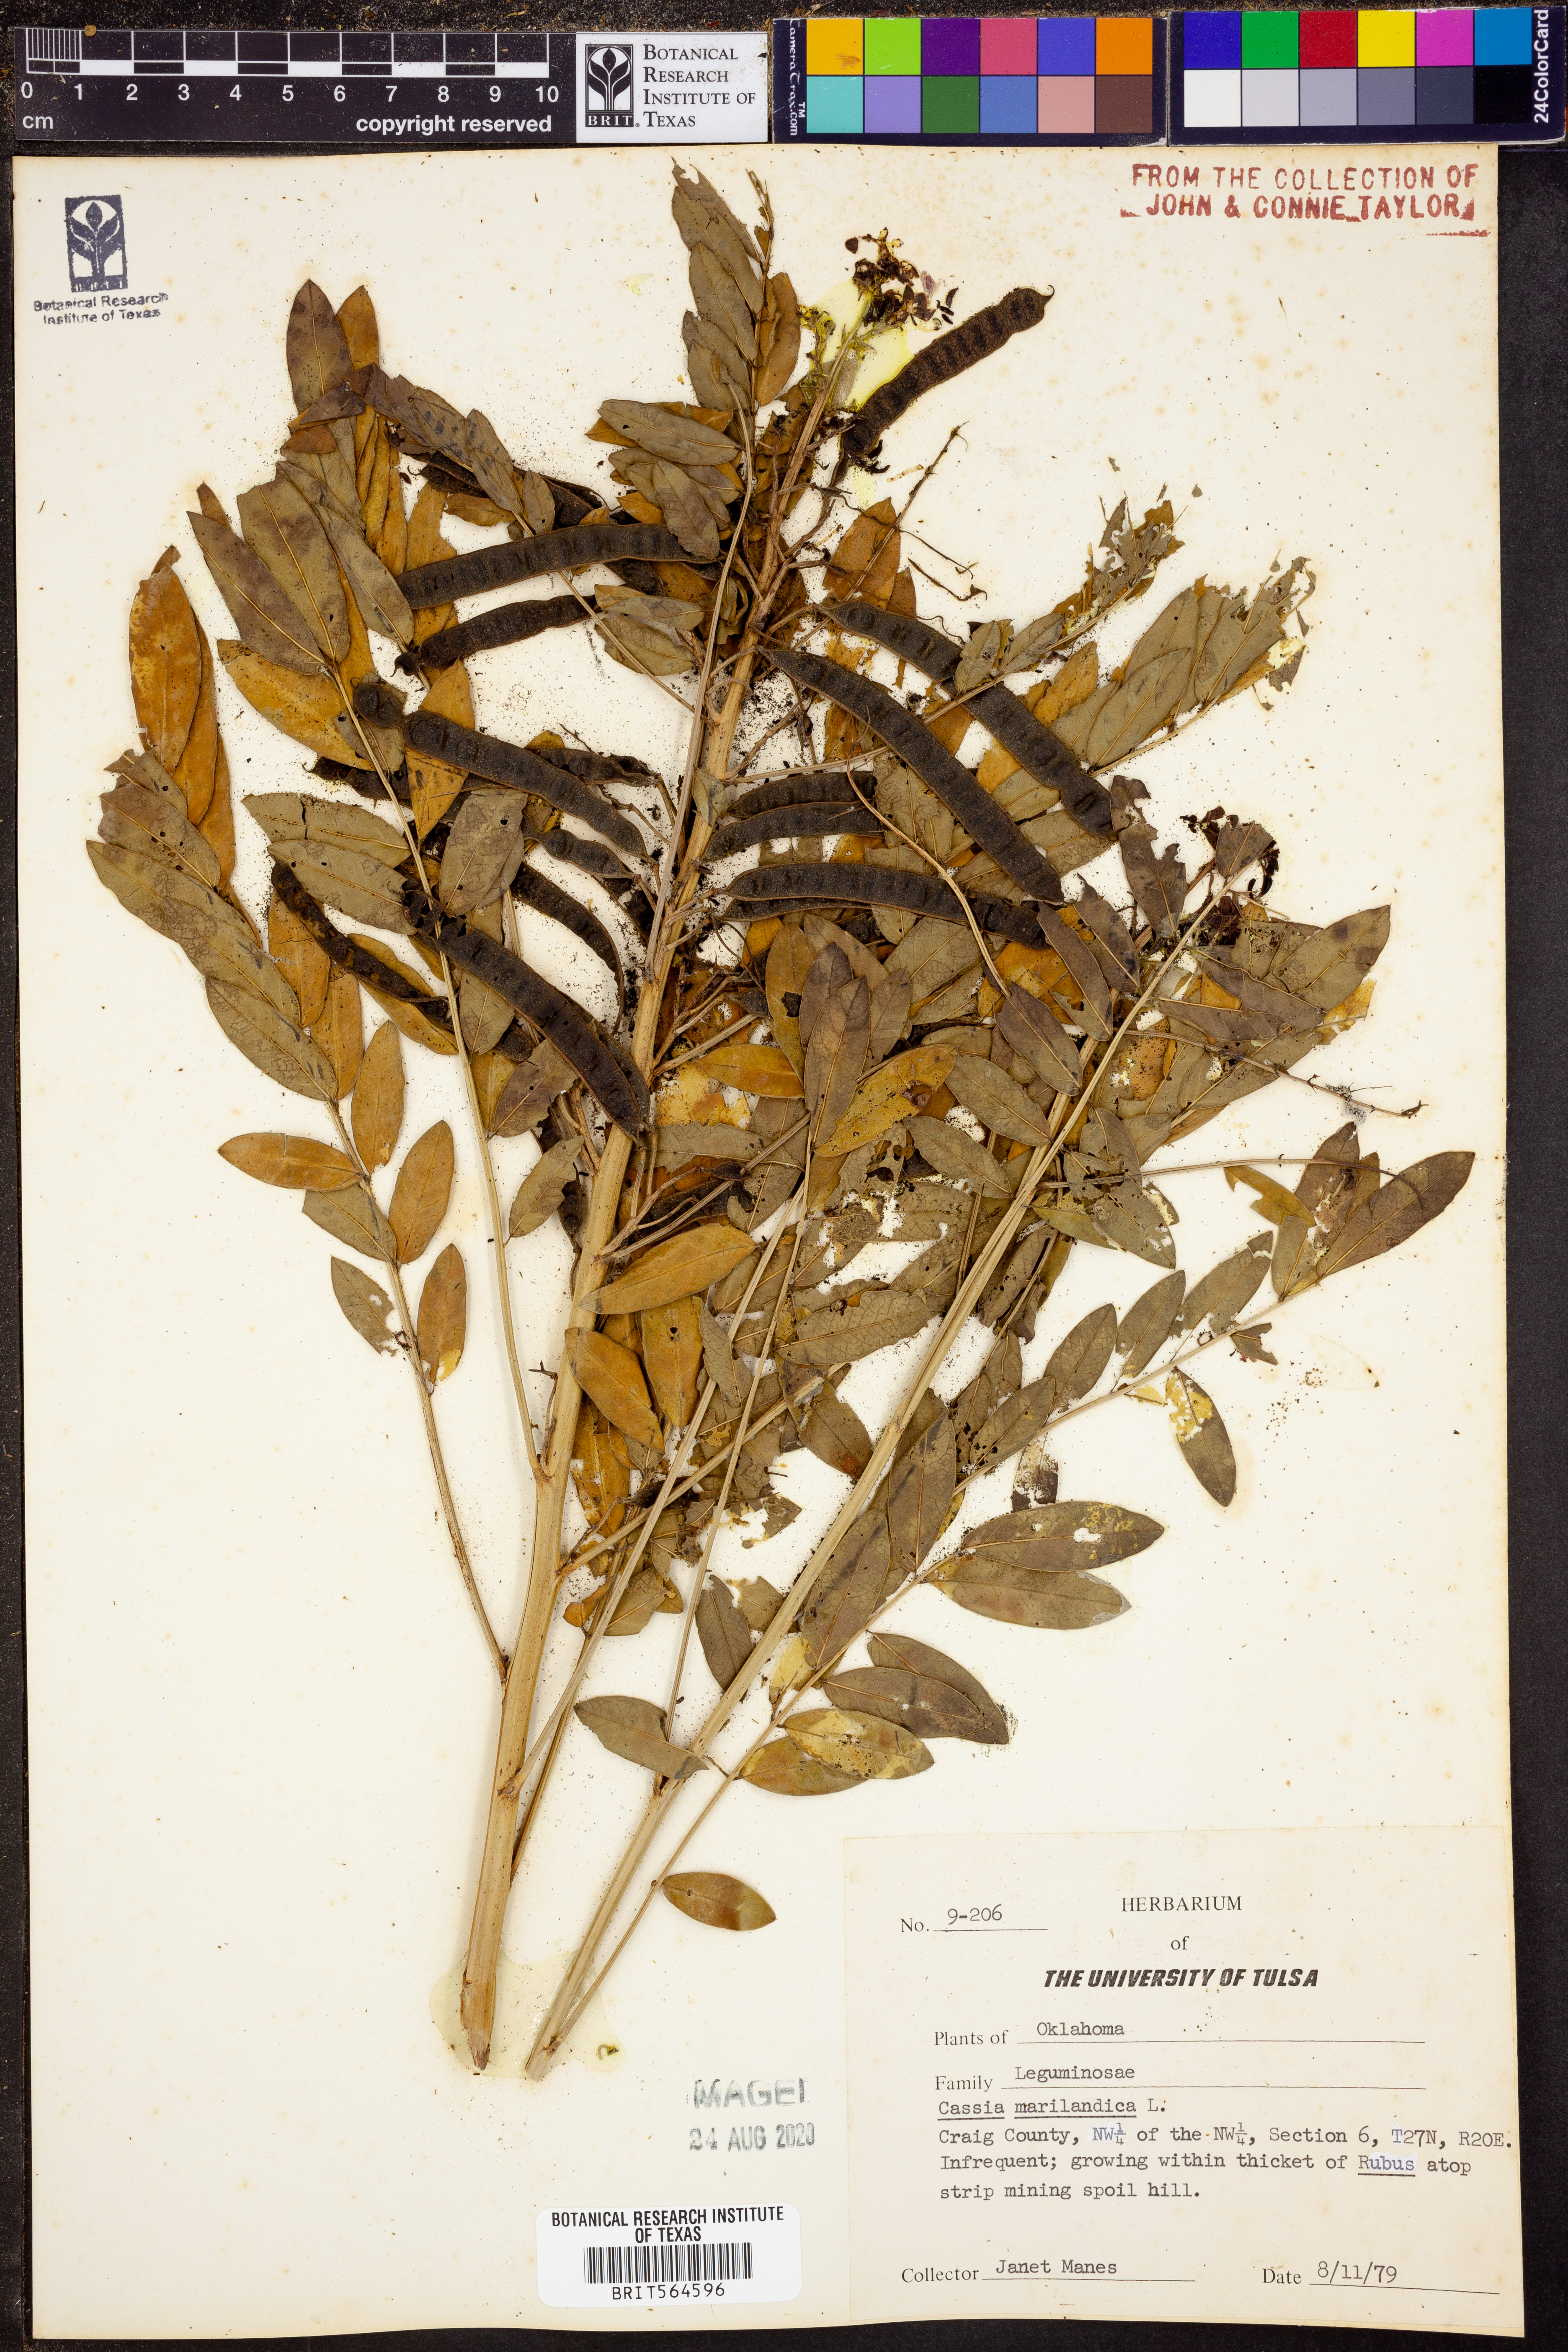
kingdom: Plantae
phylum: Tracheophyta
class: Magnoliopsida
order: Fabales
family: Fabaceae
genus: Senna
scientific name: Senna marilandica
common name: American senna
